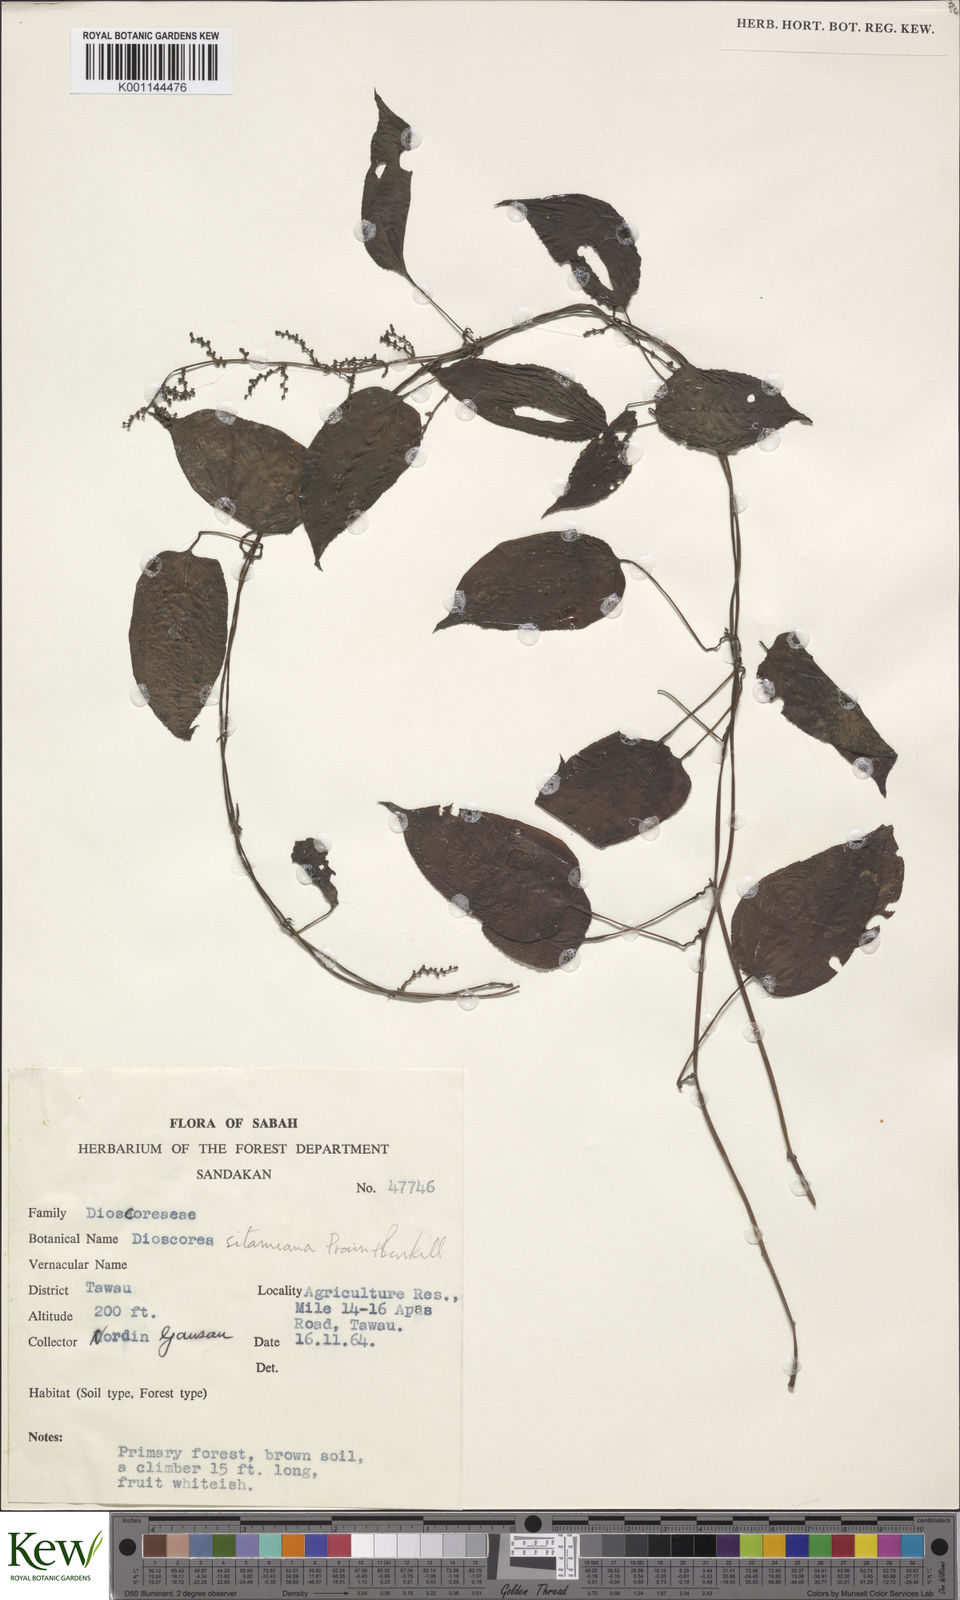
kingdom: Plantae
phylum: Tracheophyta
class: Liliopsida
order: Dioscoreales
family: Dioscoreaceae
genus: Dioscorea
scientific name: Dioscorea sitamiana
